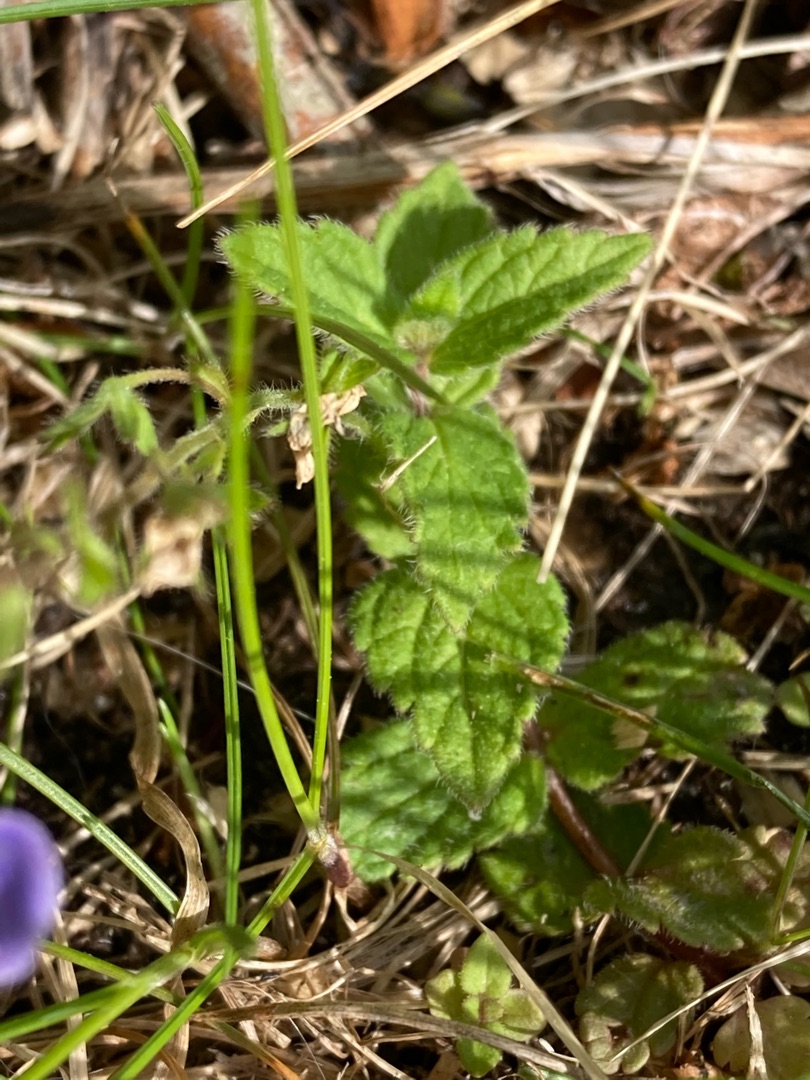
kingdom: Plantae
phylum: Tracheophyta
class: Magnoliopsida
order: Lamiales
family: Plantaginaceae
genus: Veronica
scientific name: Veronica chamaedrys
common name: Tveskægget ærenpris
